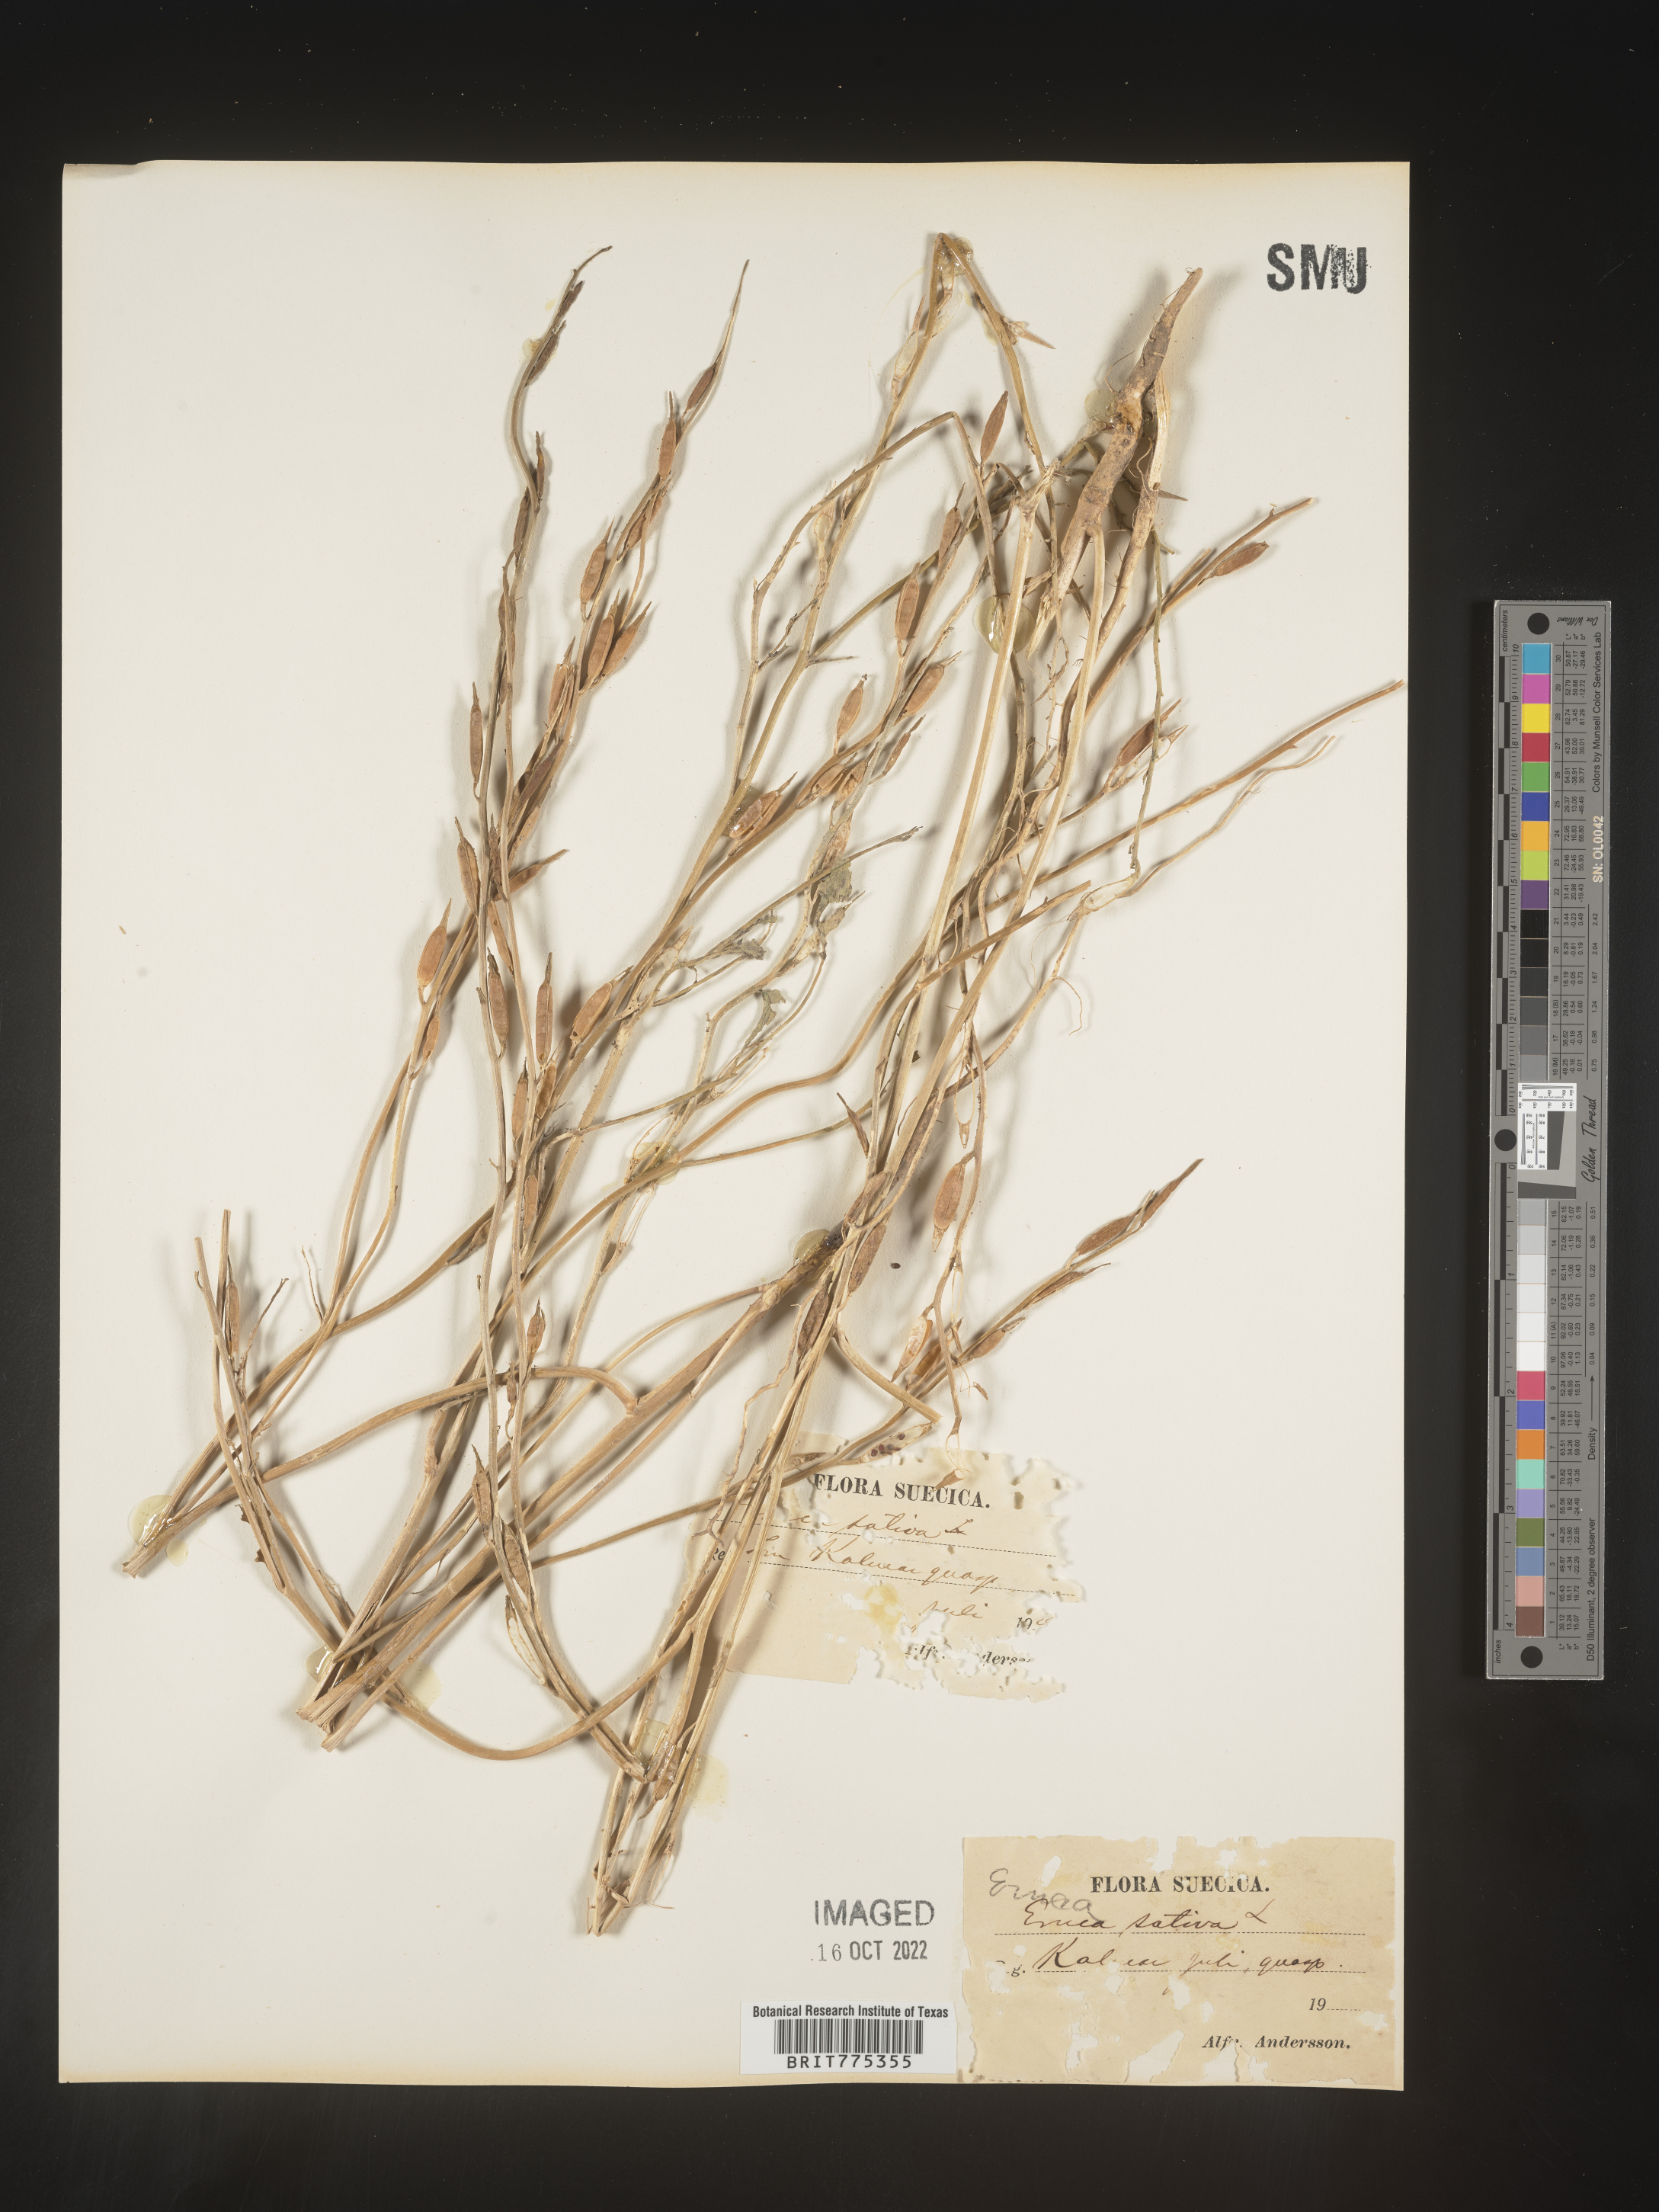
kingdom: Plantae
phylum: Tracheophyta
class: Magnoliopsida
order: Brassicales
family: Brassicaceae
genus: Eruca
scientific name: Eruca
